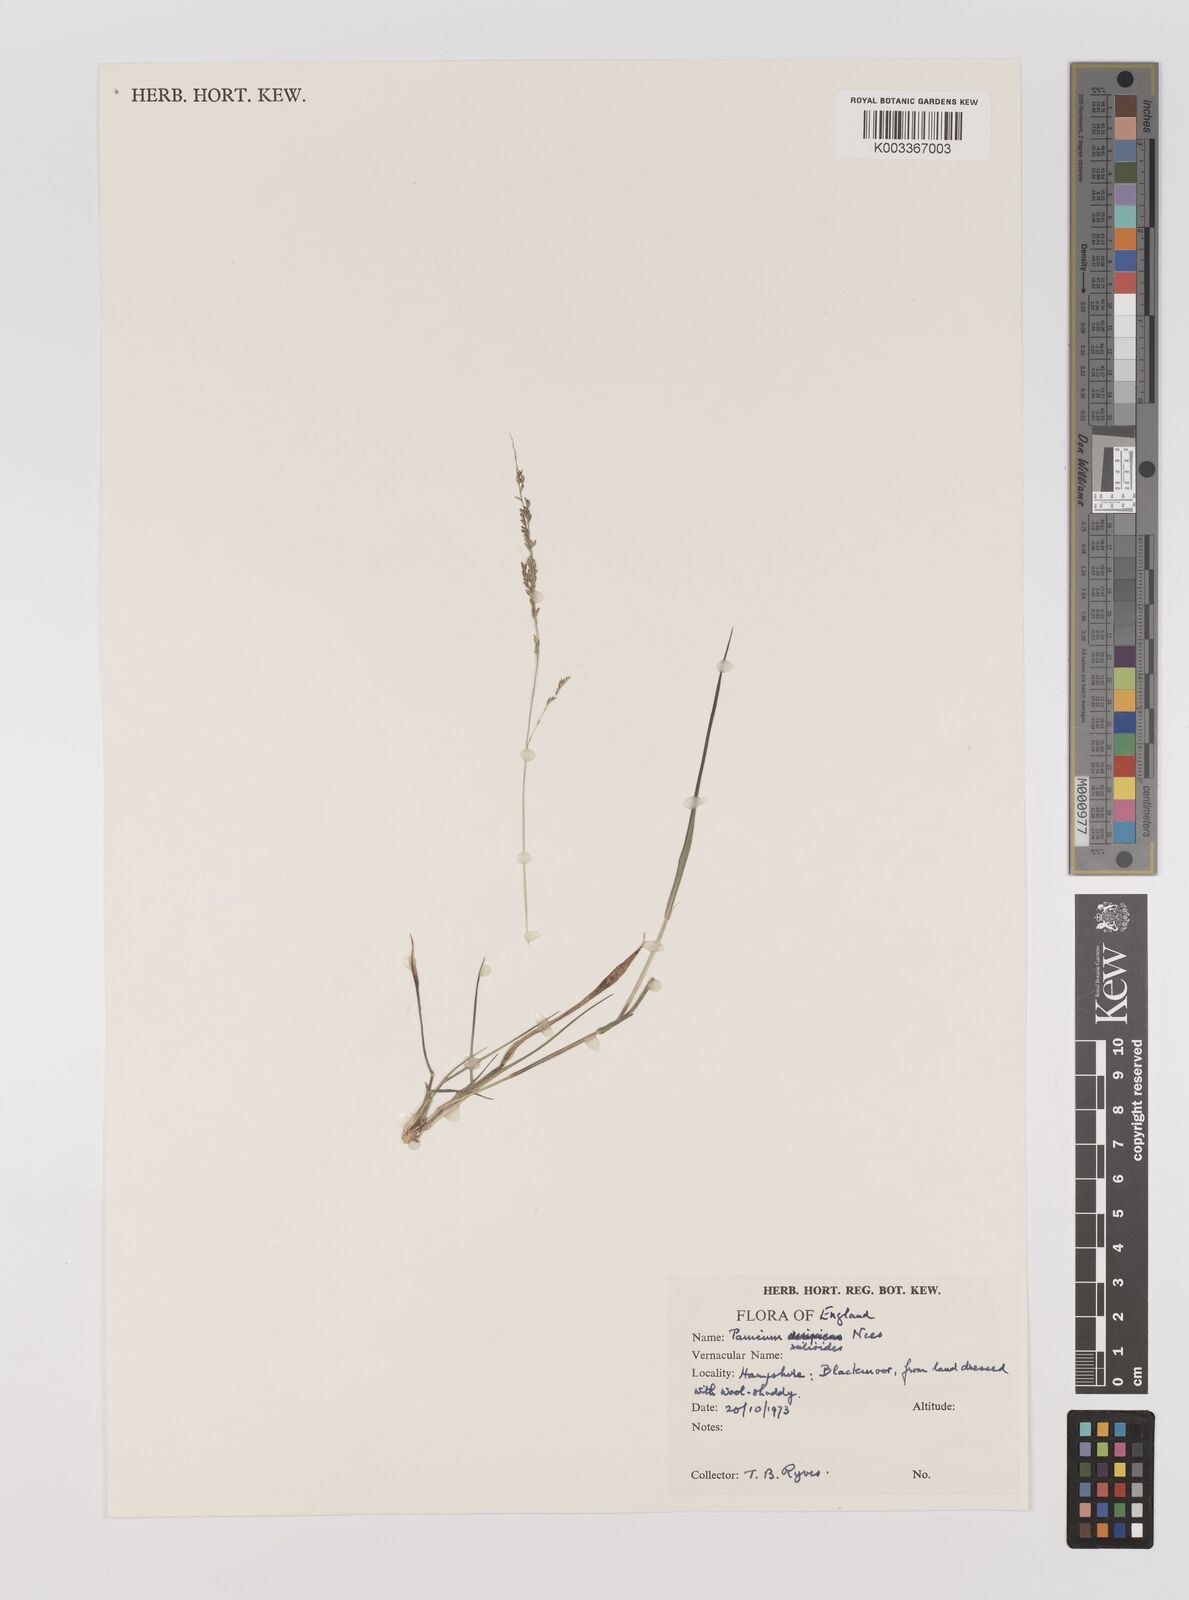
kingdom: Plantae
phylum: Tracheophyta
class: Liliopsida
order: Poales
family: Poaceae
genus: Steinchisma
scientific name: Steinchisma hians
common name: Gaping panic grass
